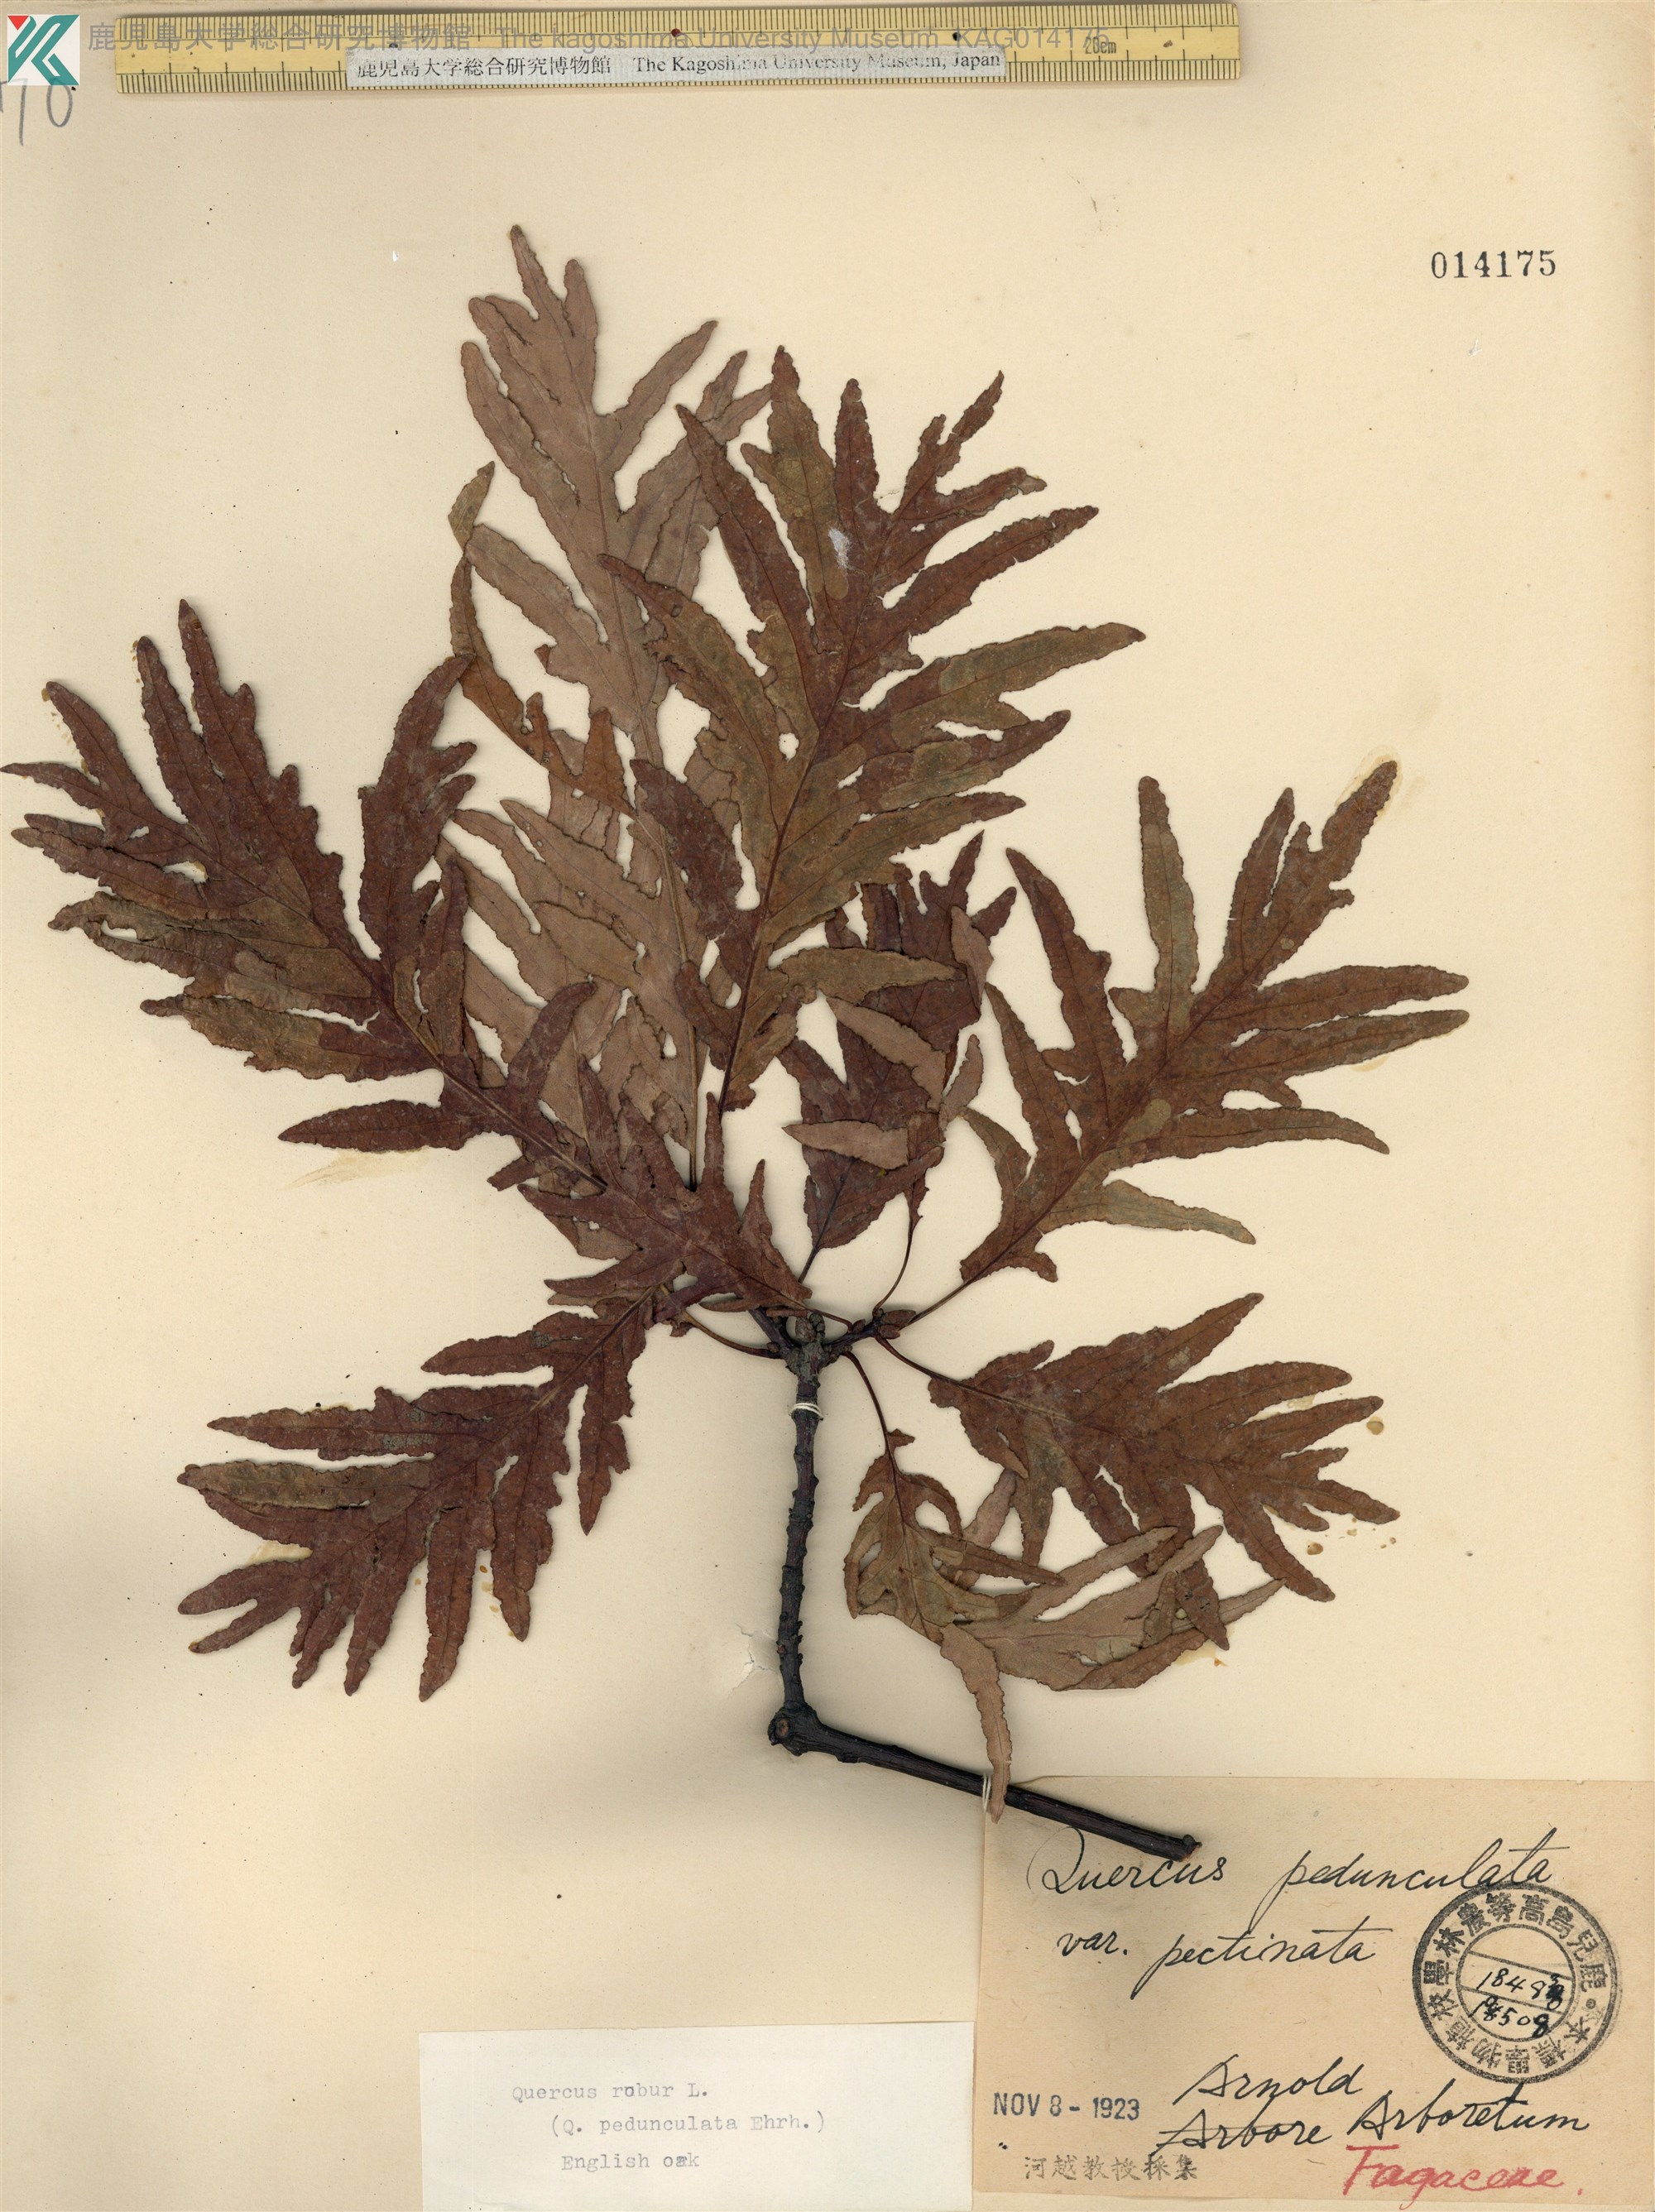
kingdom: Plantae
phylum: Tracheophyta
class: Magnoliopsida
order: Fagales
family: Fagaceae
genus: Quercus
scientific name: Quercus robur
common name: Pedunculate oak
